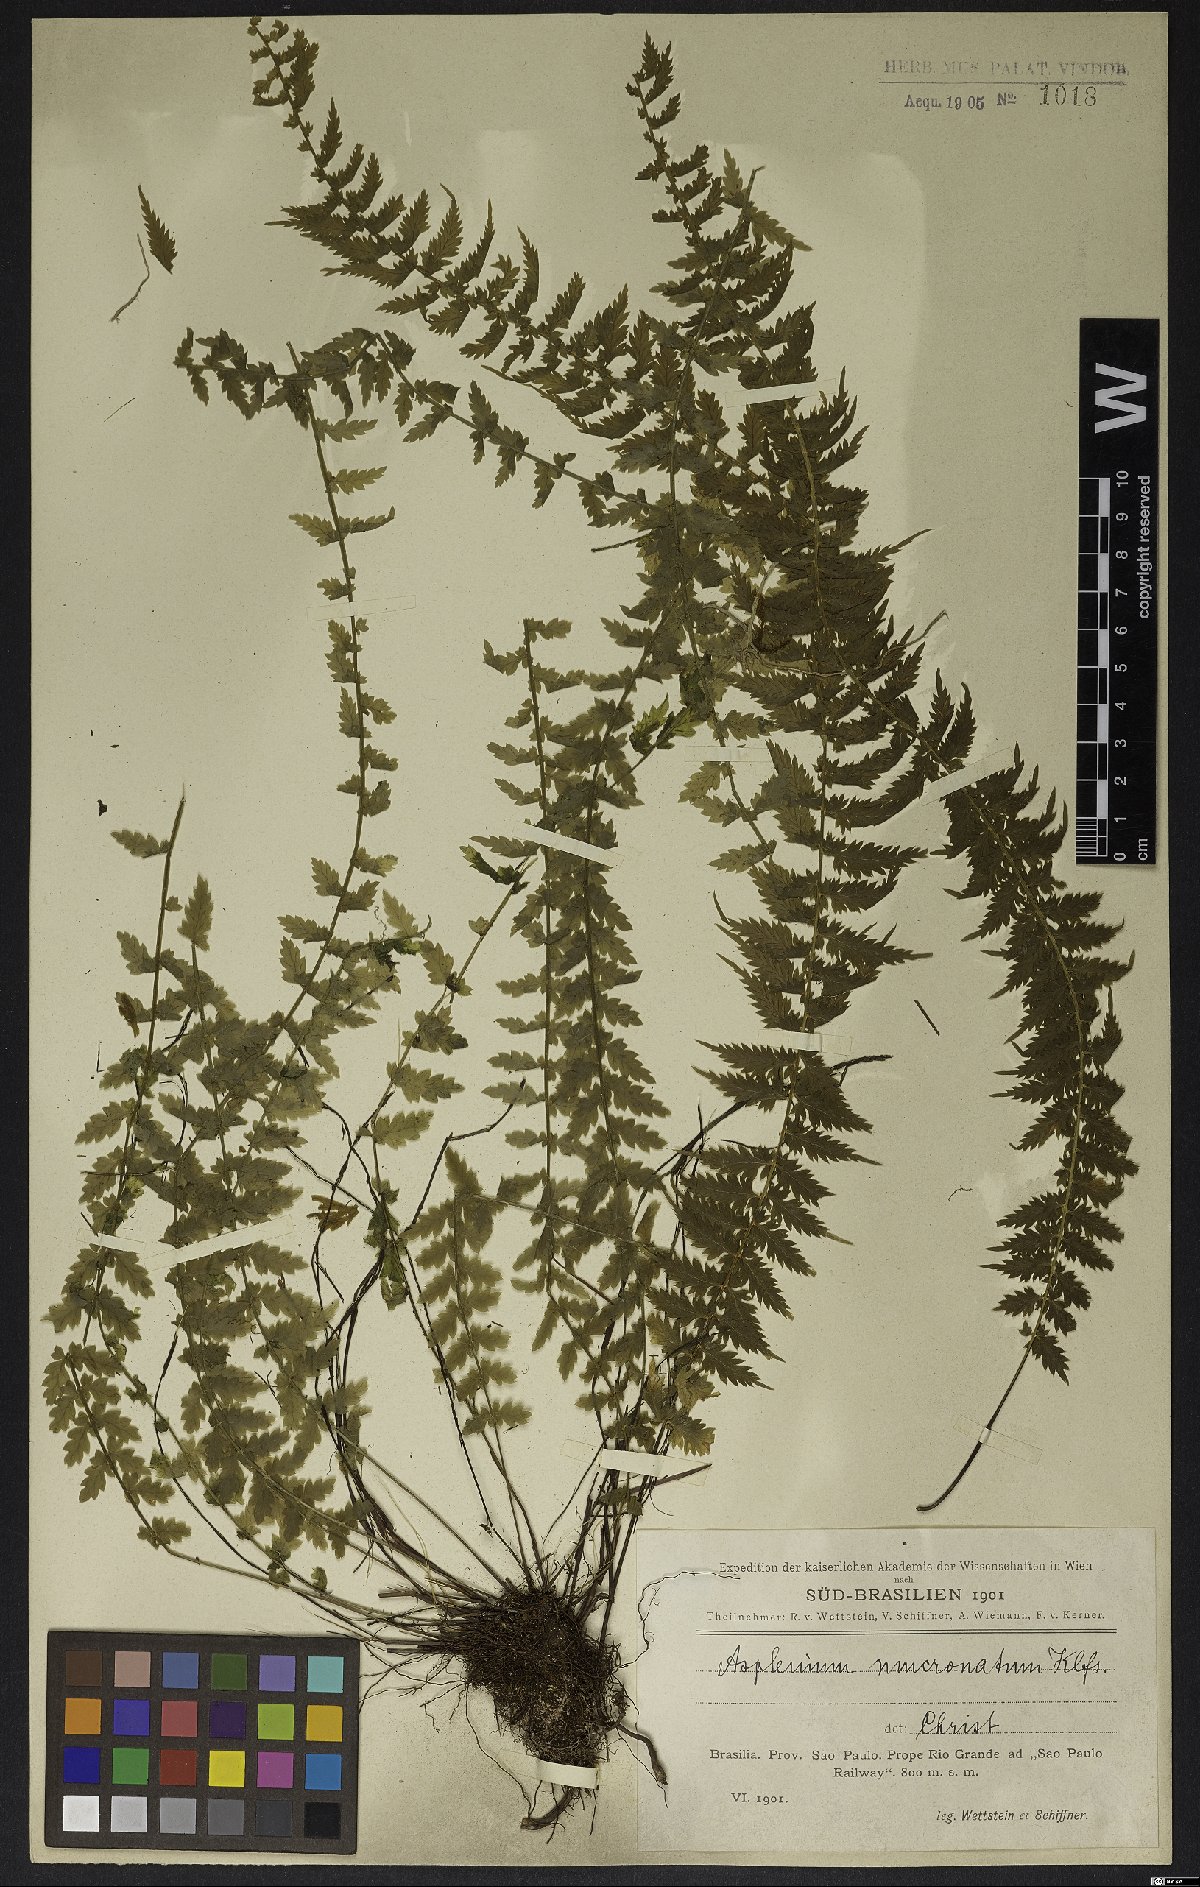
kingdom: Plantae
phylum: Tracheophyta
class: Polypodiopsida
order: Polypodiales
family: Aspleniaceae
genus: Asplenium
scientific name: Asplenium mucronatum
